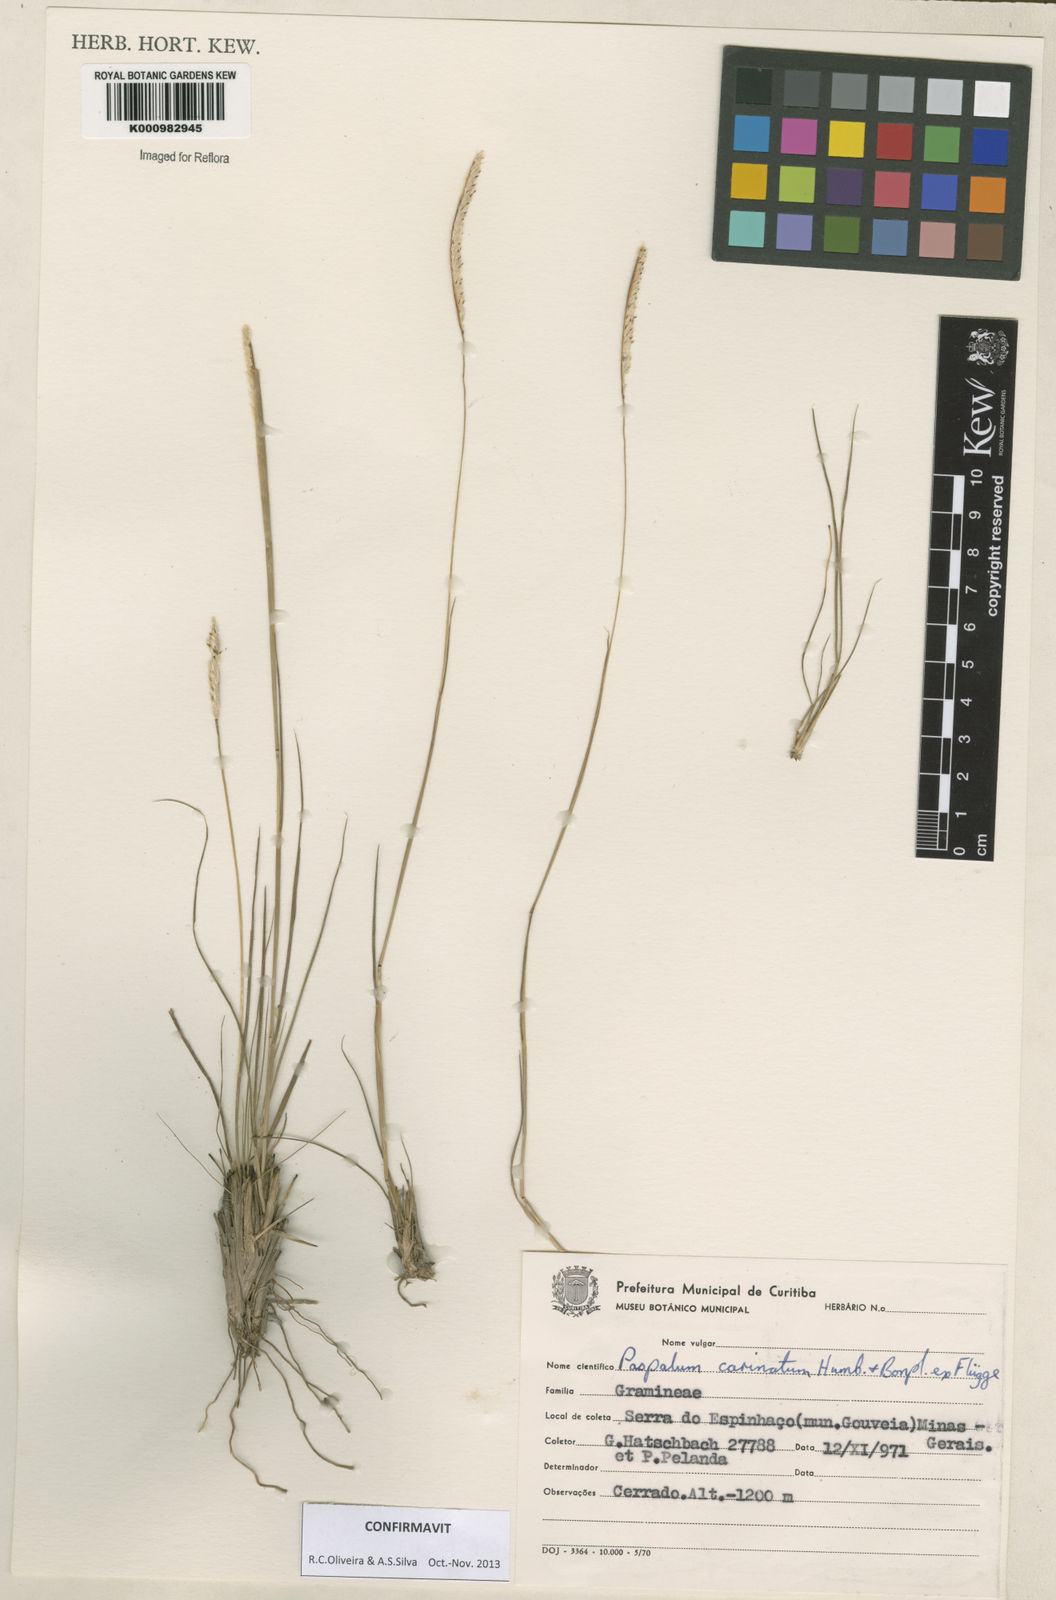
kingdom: Plantae
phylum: Tracheophyta
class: Liliopsida
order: Poales
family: Poaceae
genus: Paspalum
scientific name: Paspalum
